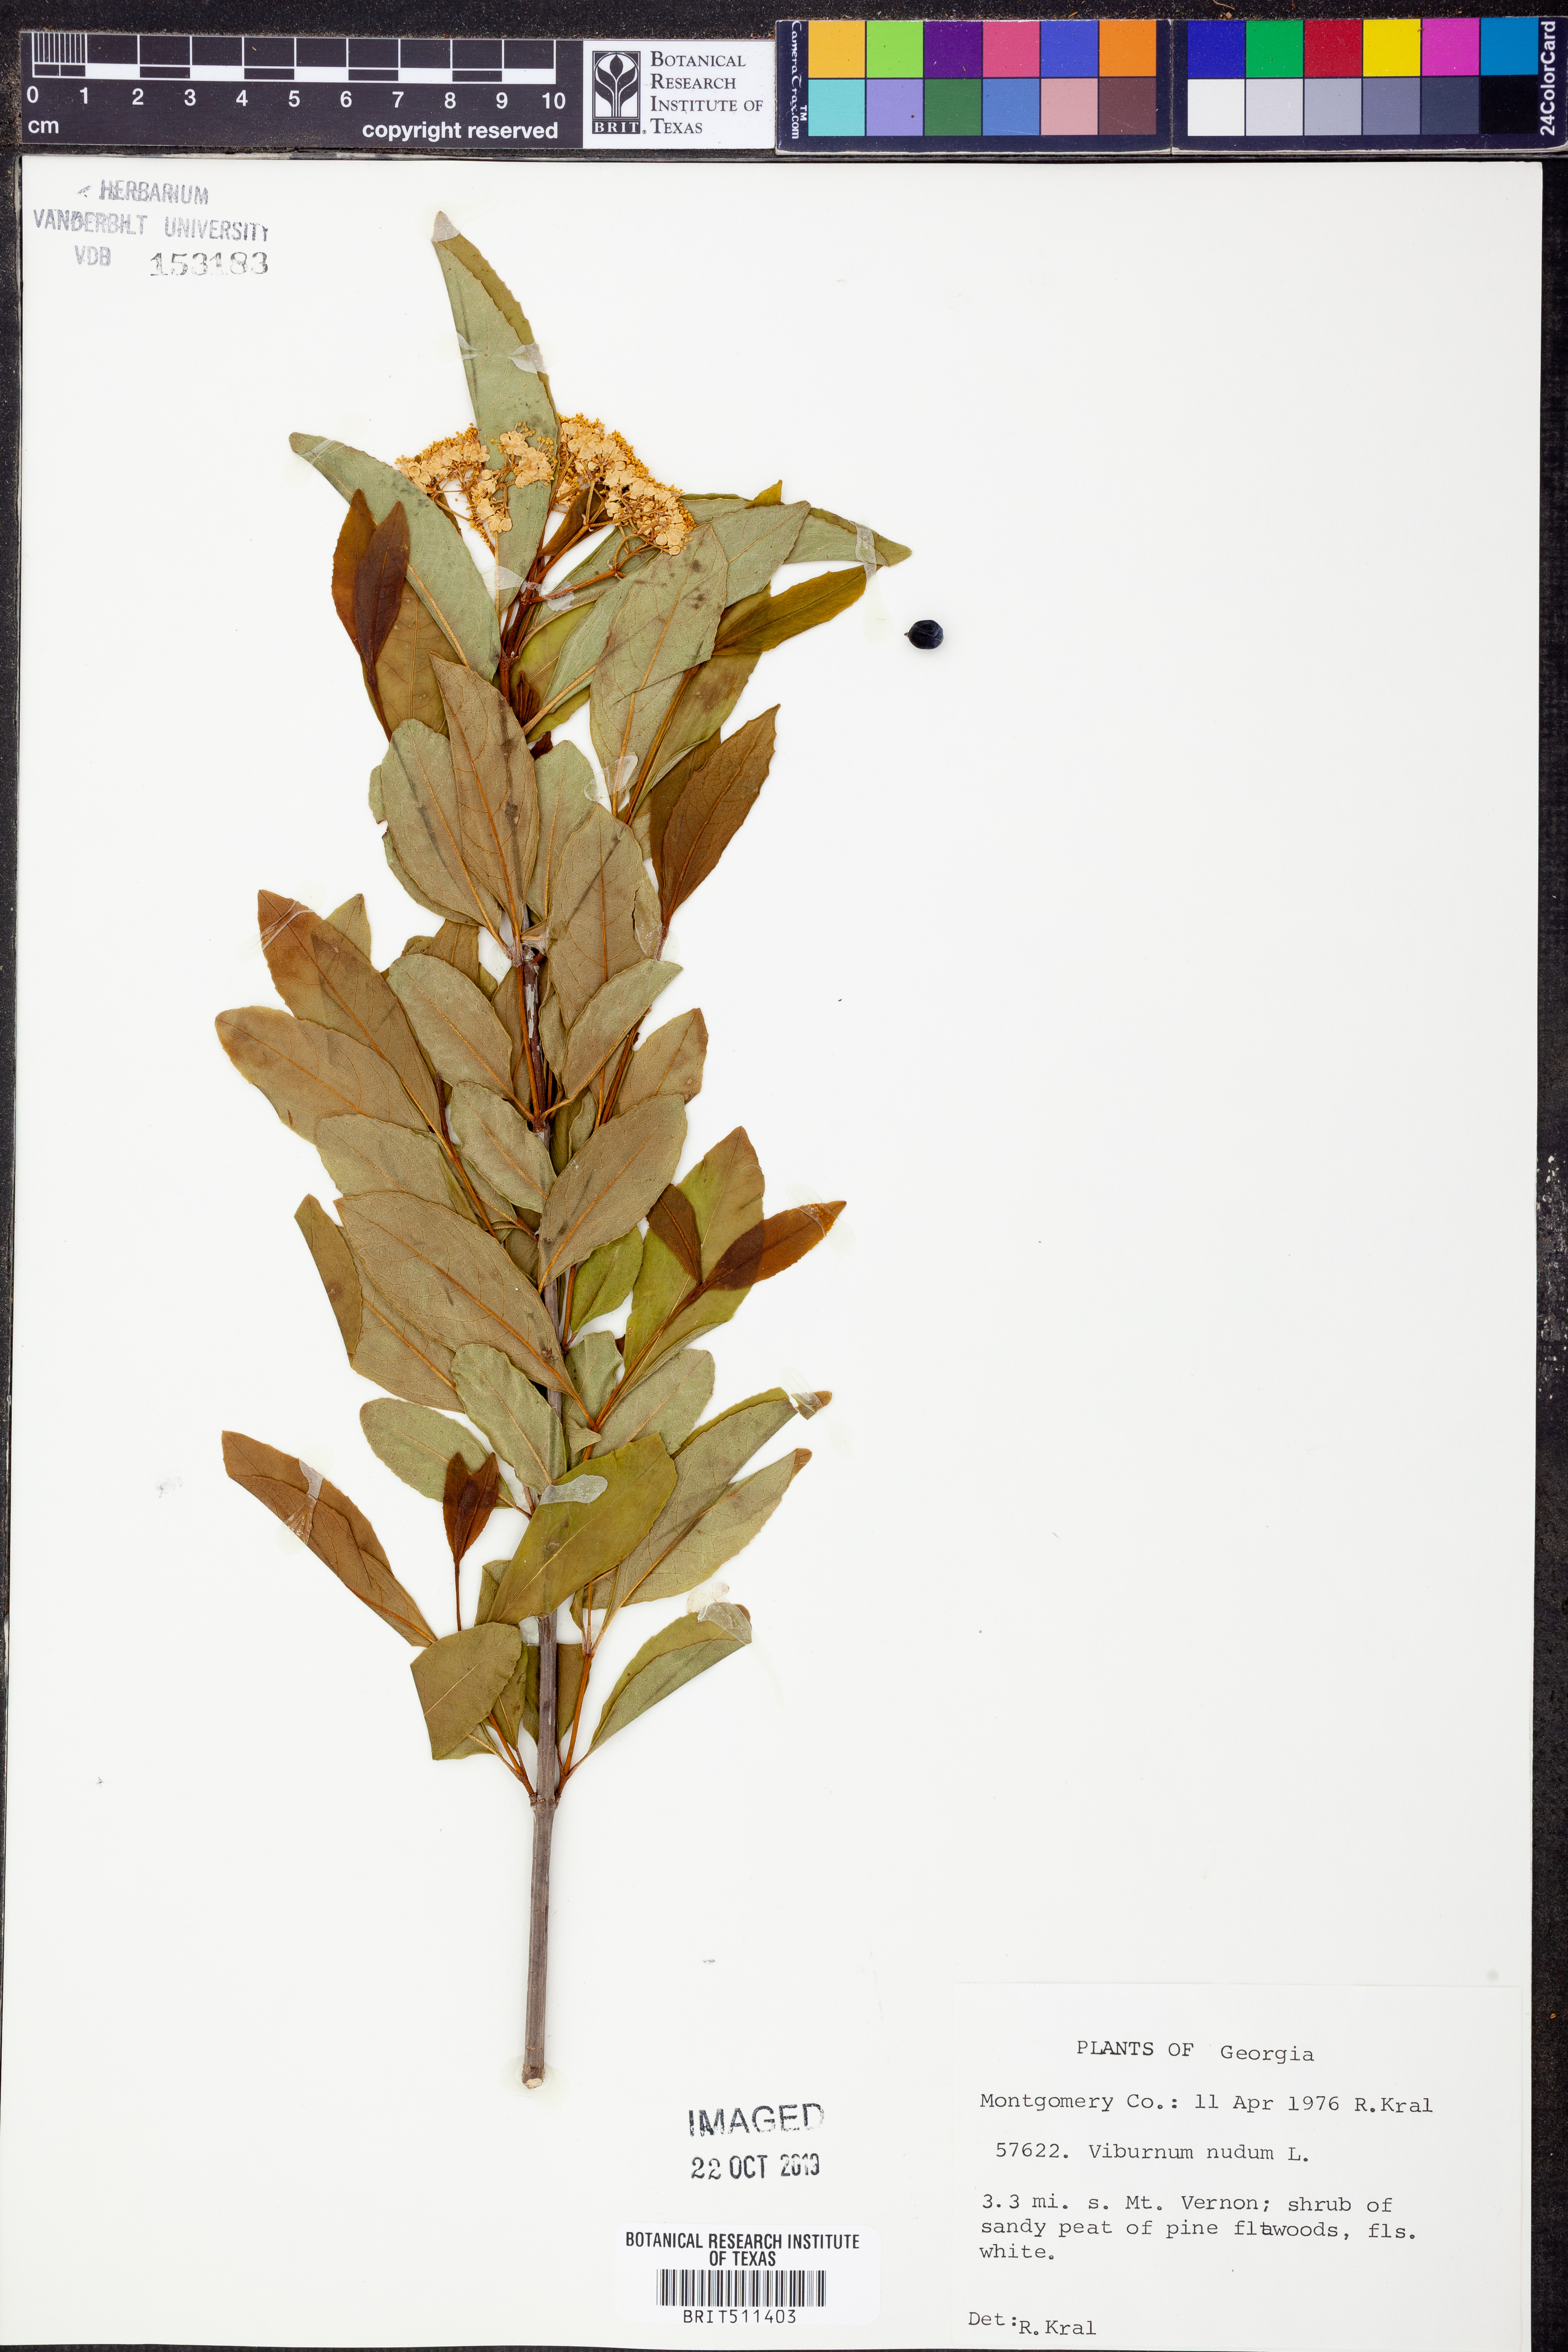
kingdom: Plantae
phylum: Tracheophyta
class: Magnoliopsida
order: Dipsacales
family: Viburnaceae
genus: Viburnum
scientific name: Viburnum nudum
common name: Possum haw
